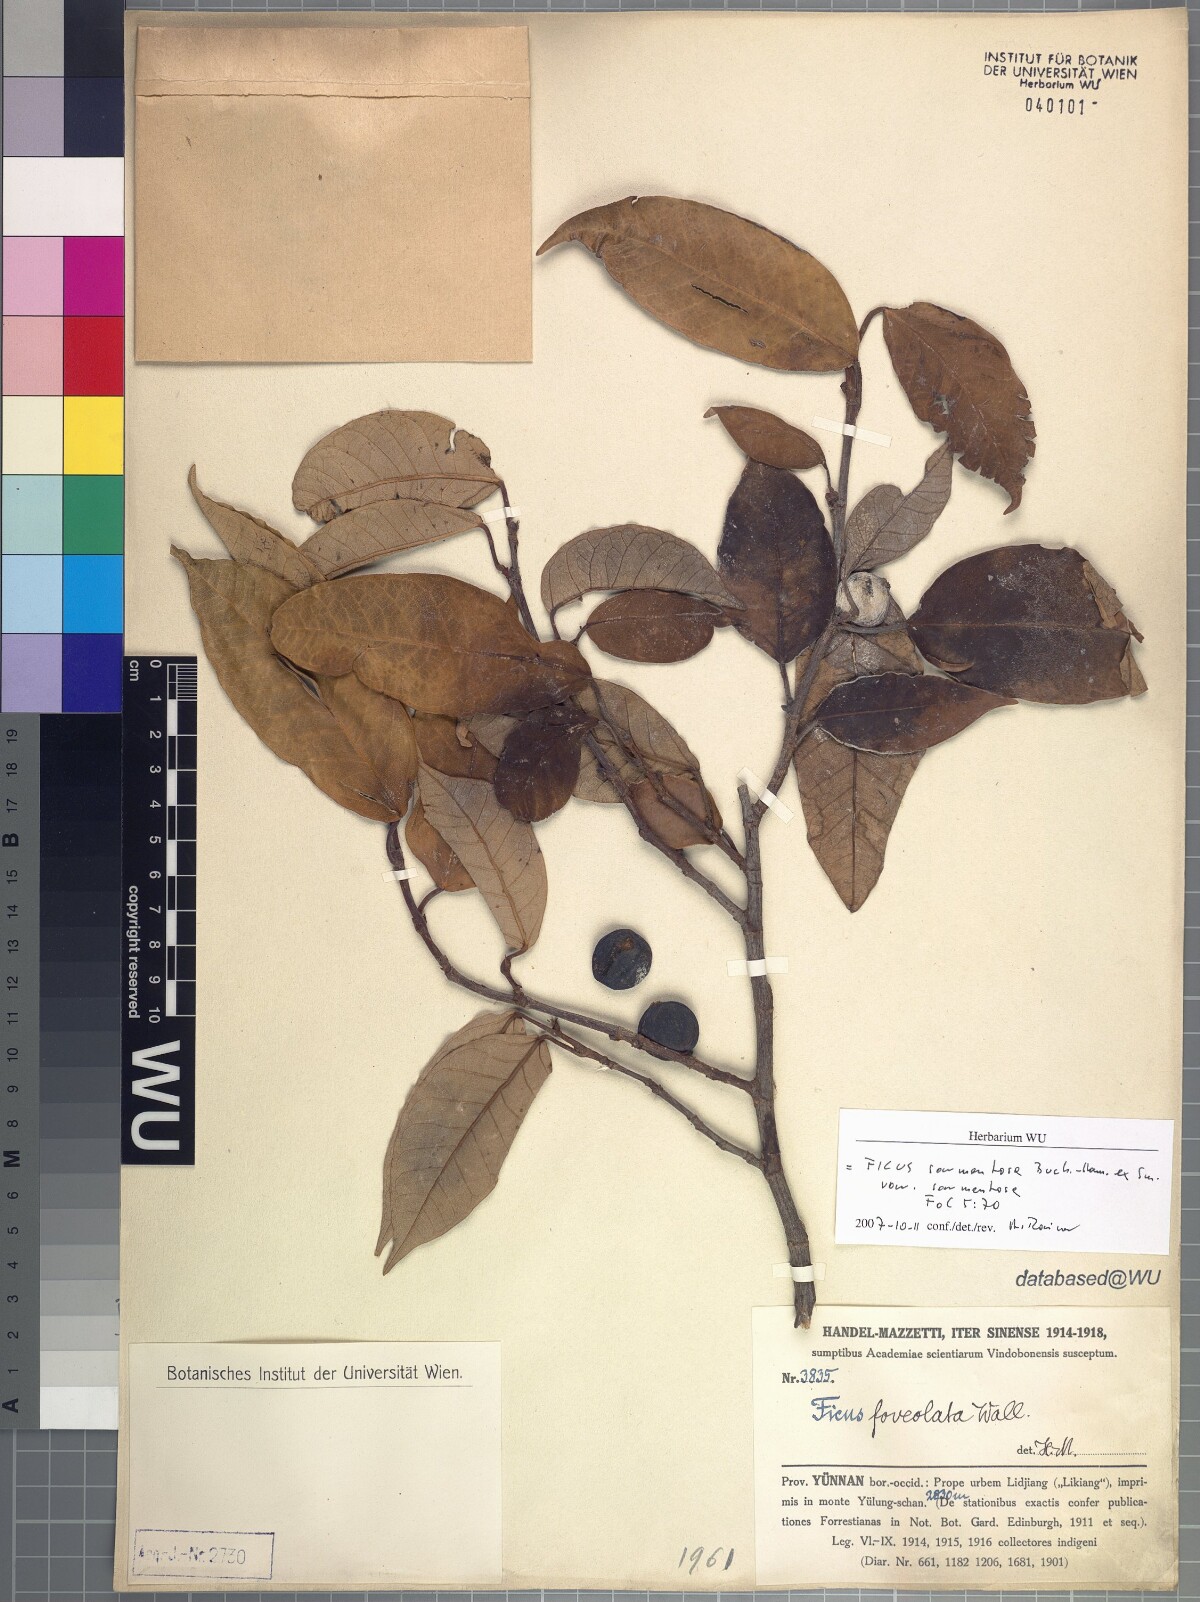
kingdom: Plantae
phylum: Tracheophyta
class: Magnoliopsida
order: Rosales
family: Moraceae
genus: Ficus
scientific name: Ficus sarmentosa
